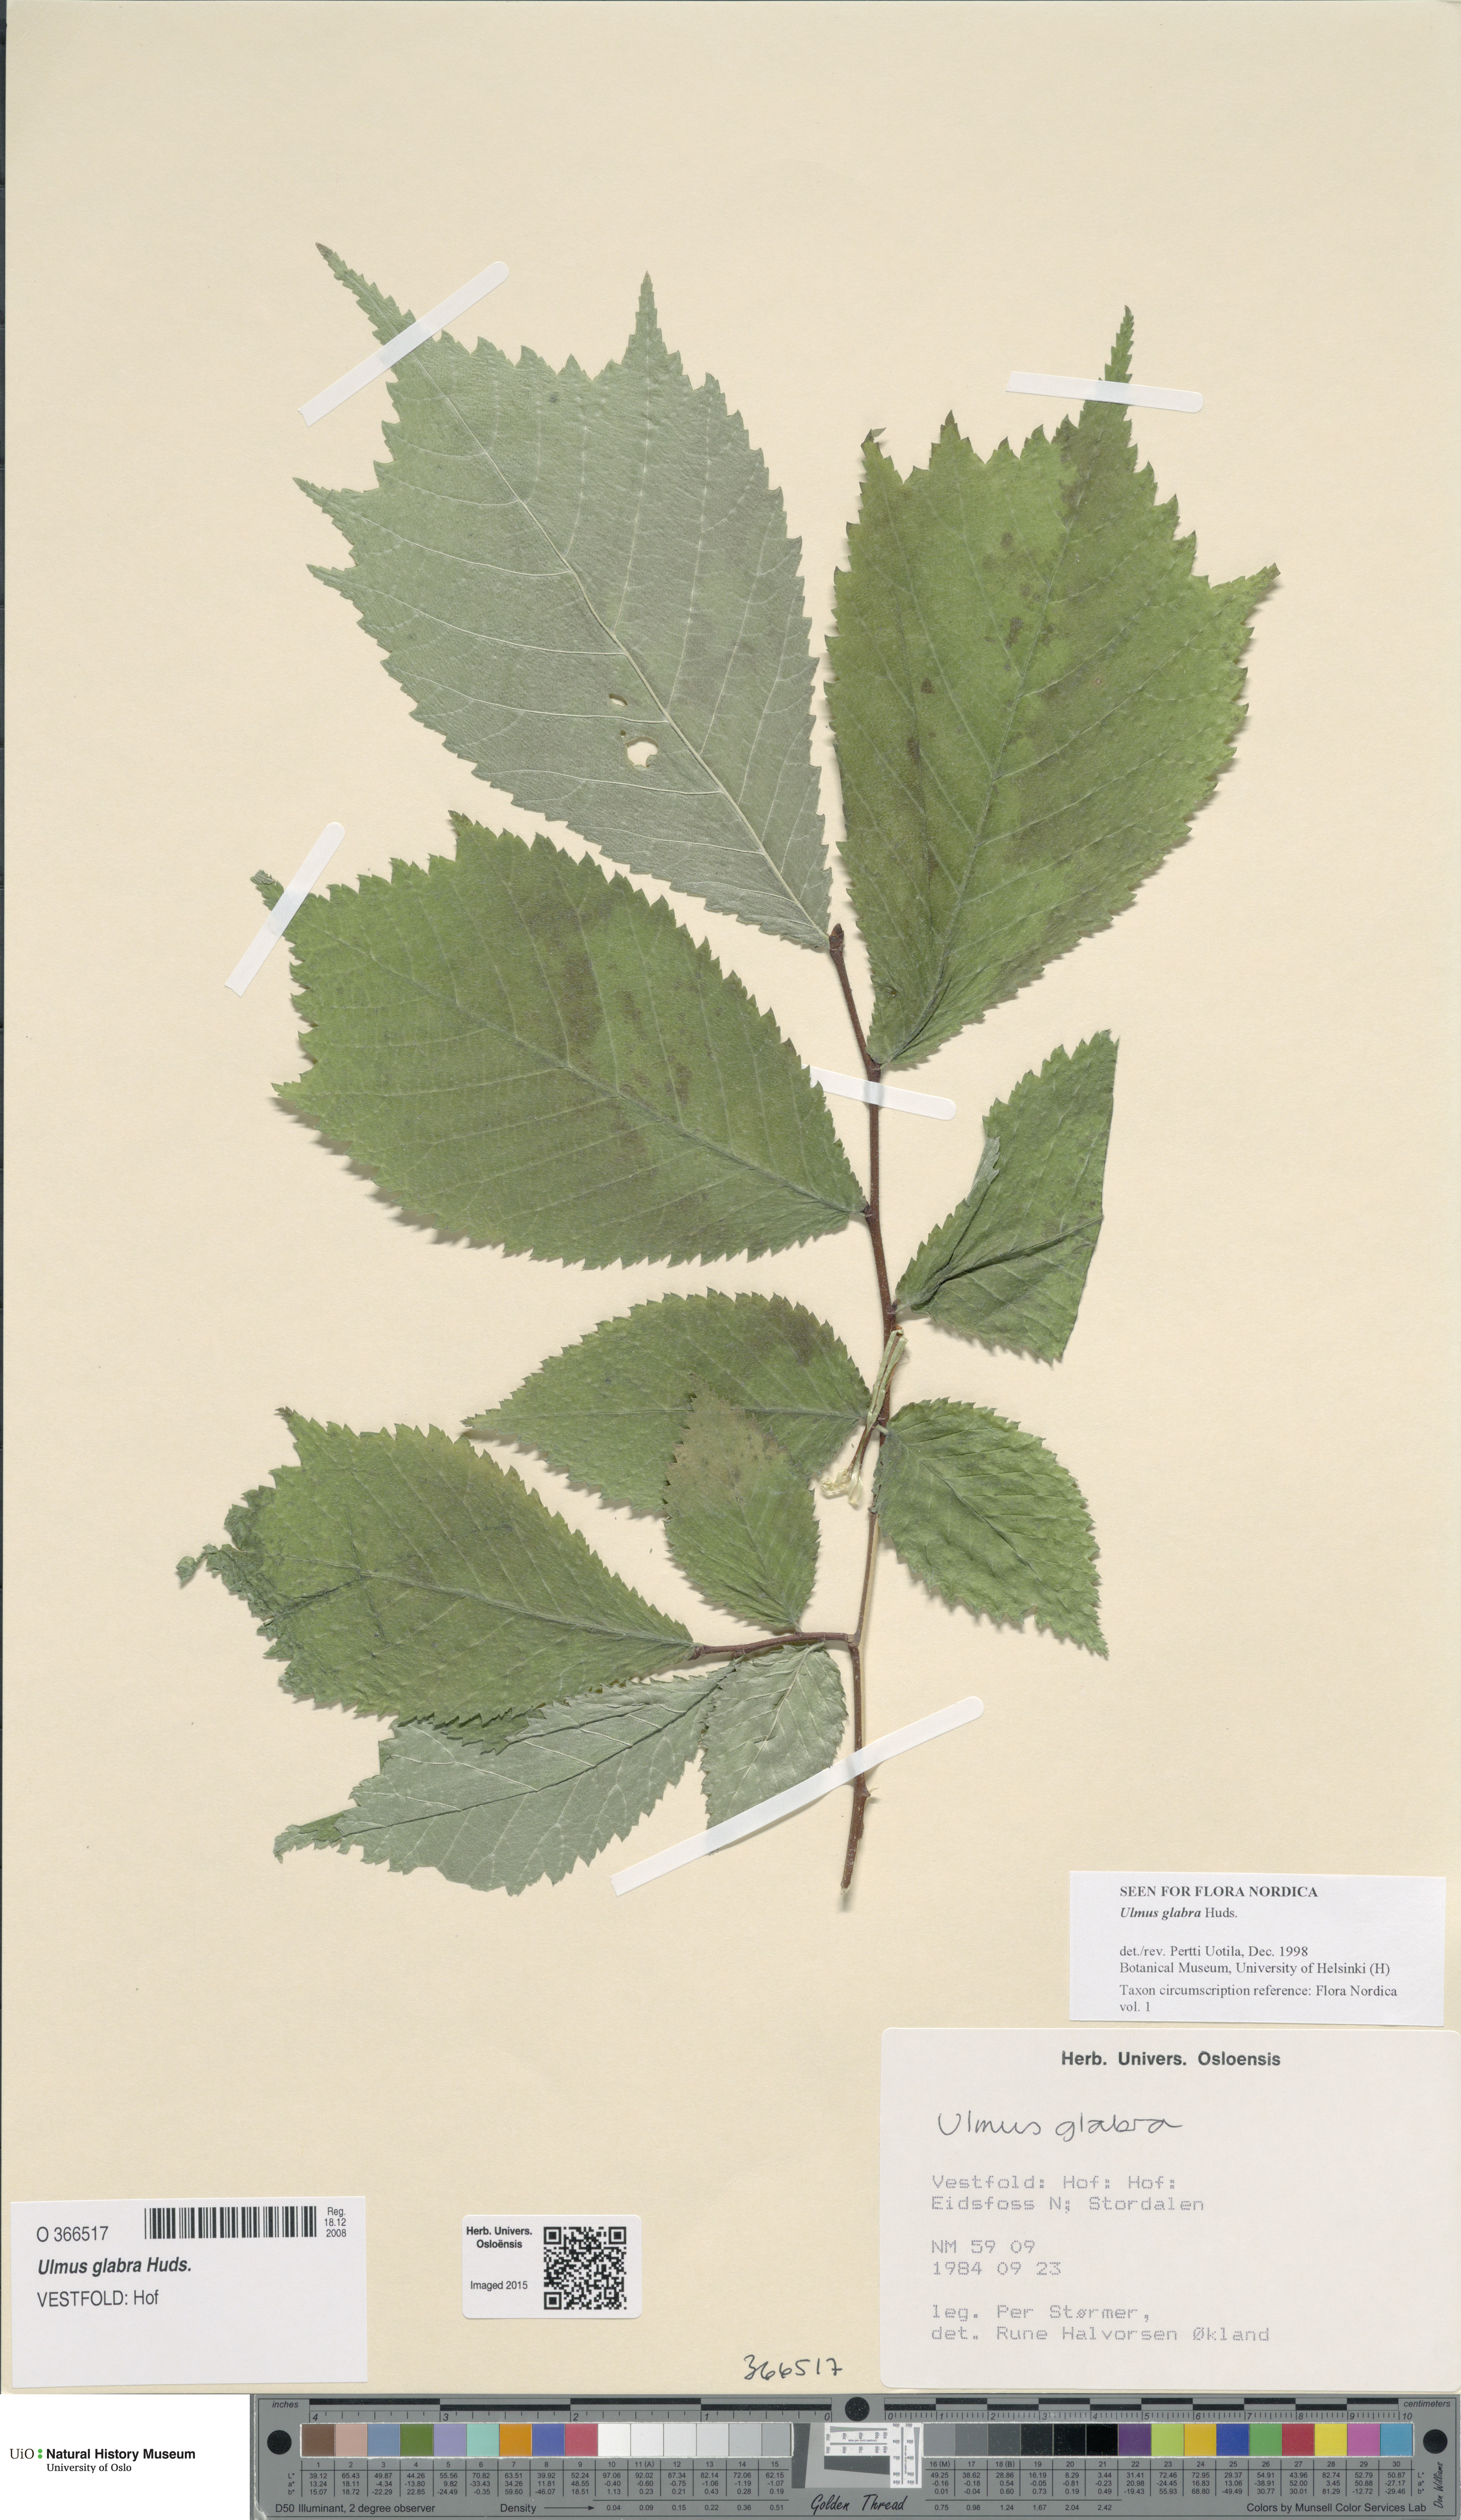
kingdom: Plantae
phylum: Tracheophyta
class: Magnoliopsida
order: Rosales
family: Ulmaceae
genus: Ulmus
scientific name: Ulmus glabra
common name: Wych elm
